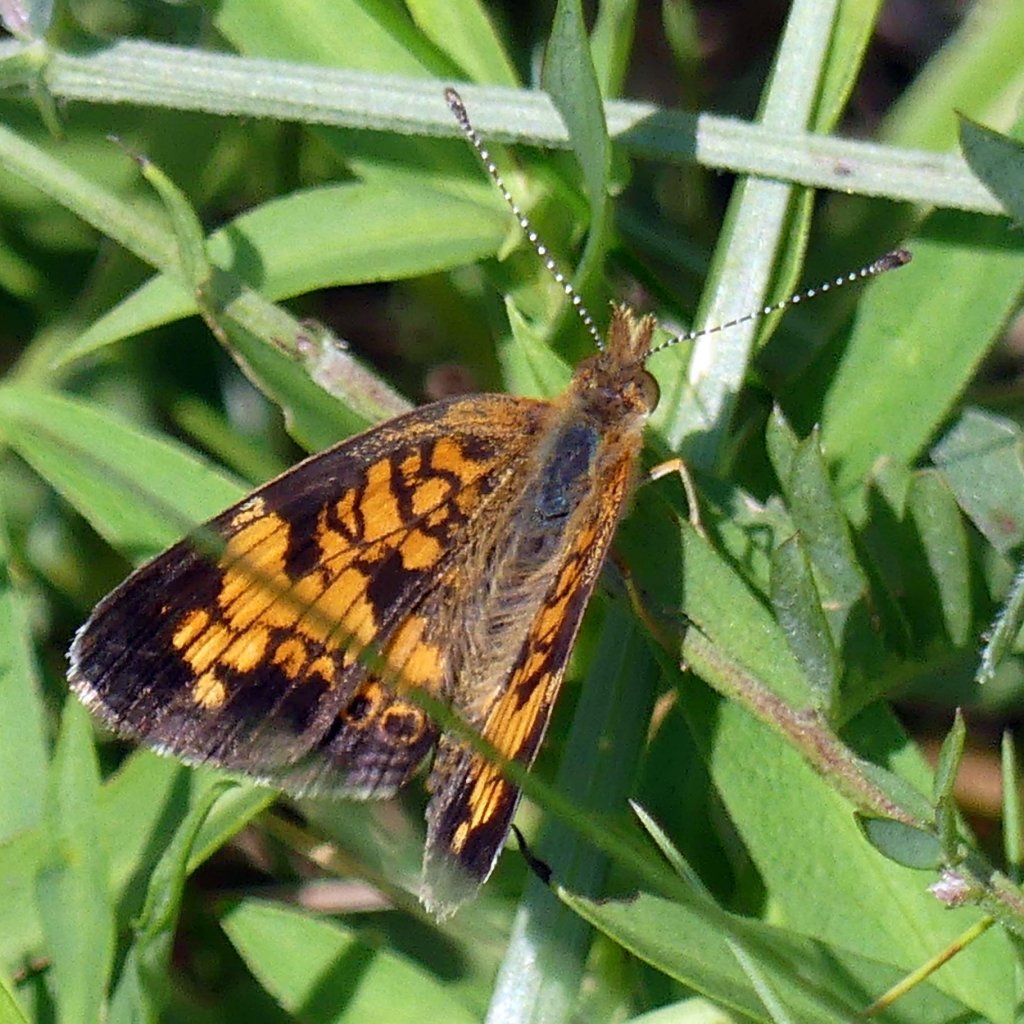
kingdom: Animalia
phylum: Arthropoda
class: Insecta
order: Lepidoptera
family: Nymphalidae
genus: Phyciodes
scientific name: Phyciodes tharos
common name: Pearl Crescent
